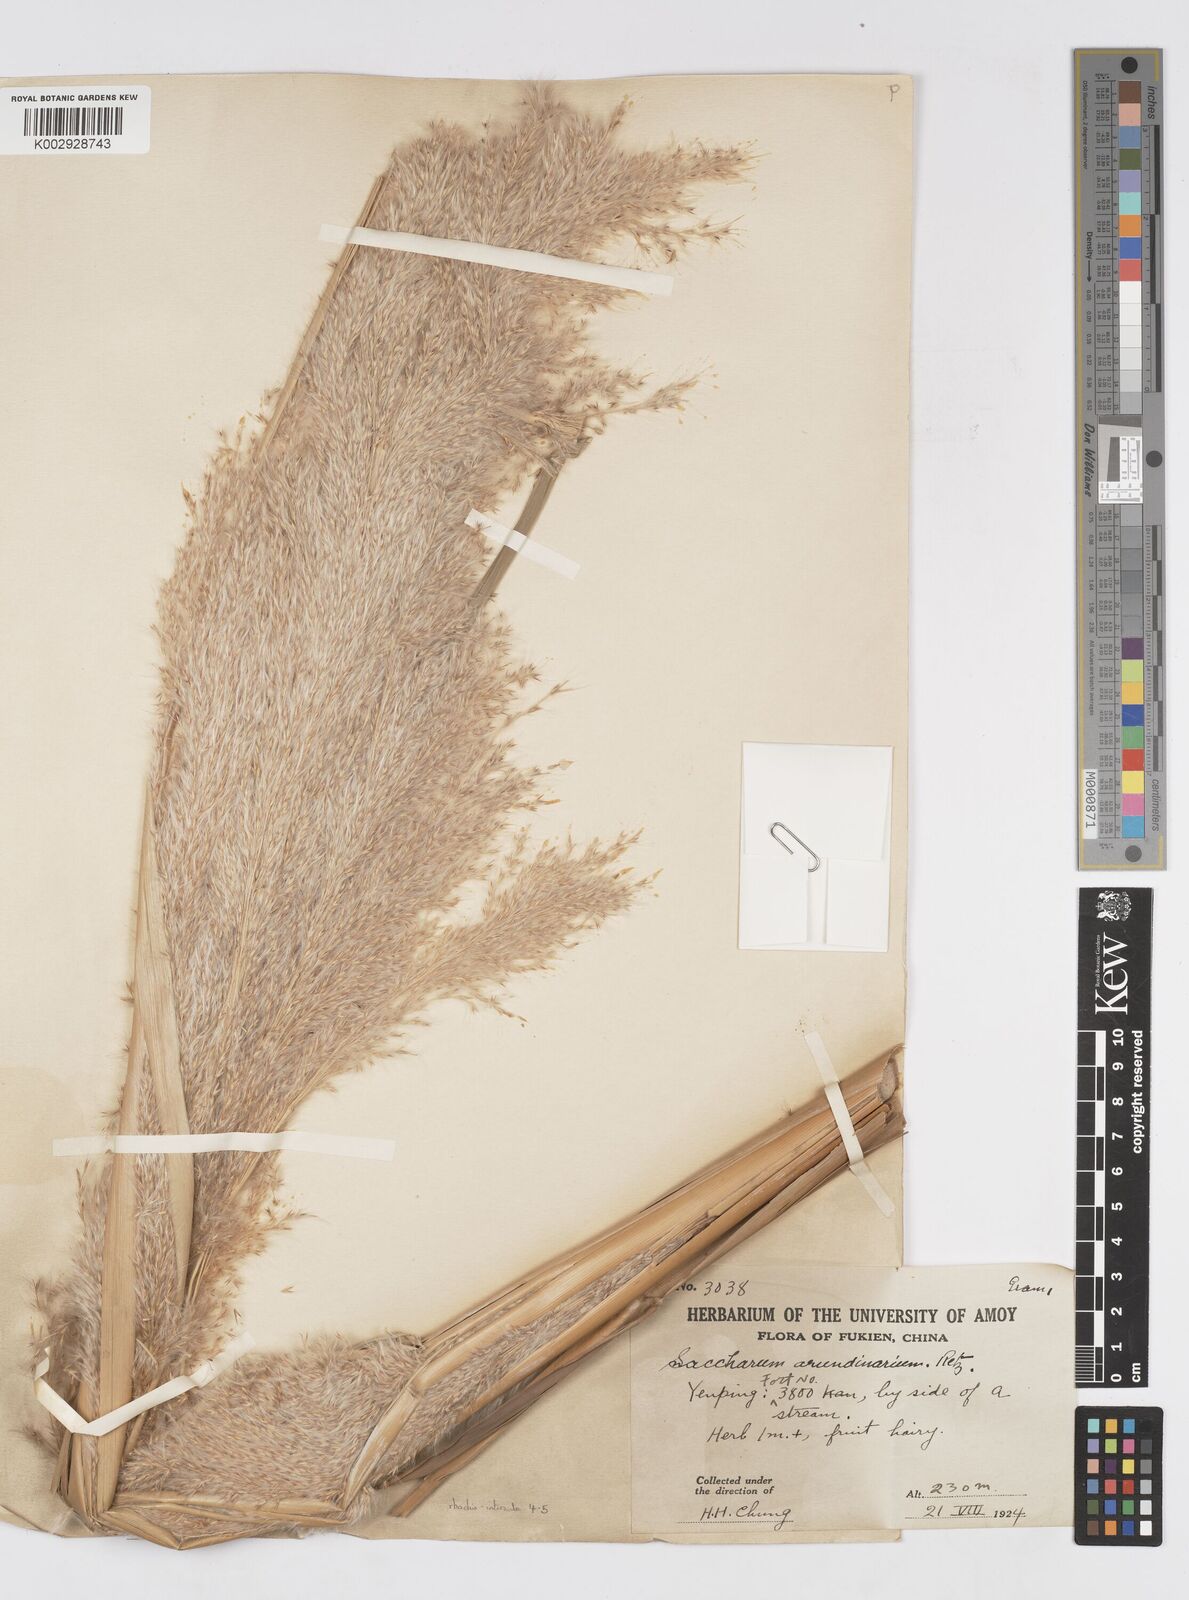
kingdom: Plantae
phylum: Tracheophyta
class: Liliopsida
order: Poales
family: Poaceae
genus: Tripidium
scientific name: Tripidium arundinaceum
